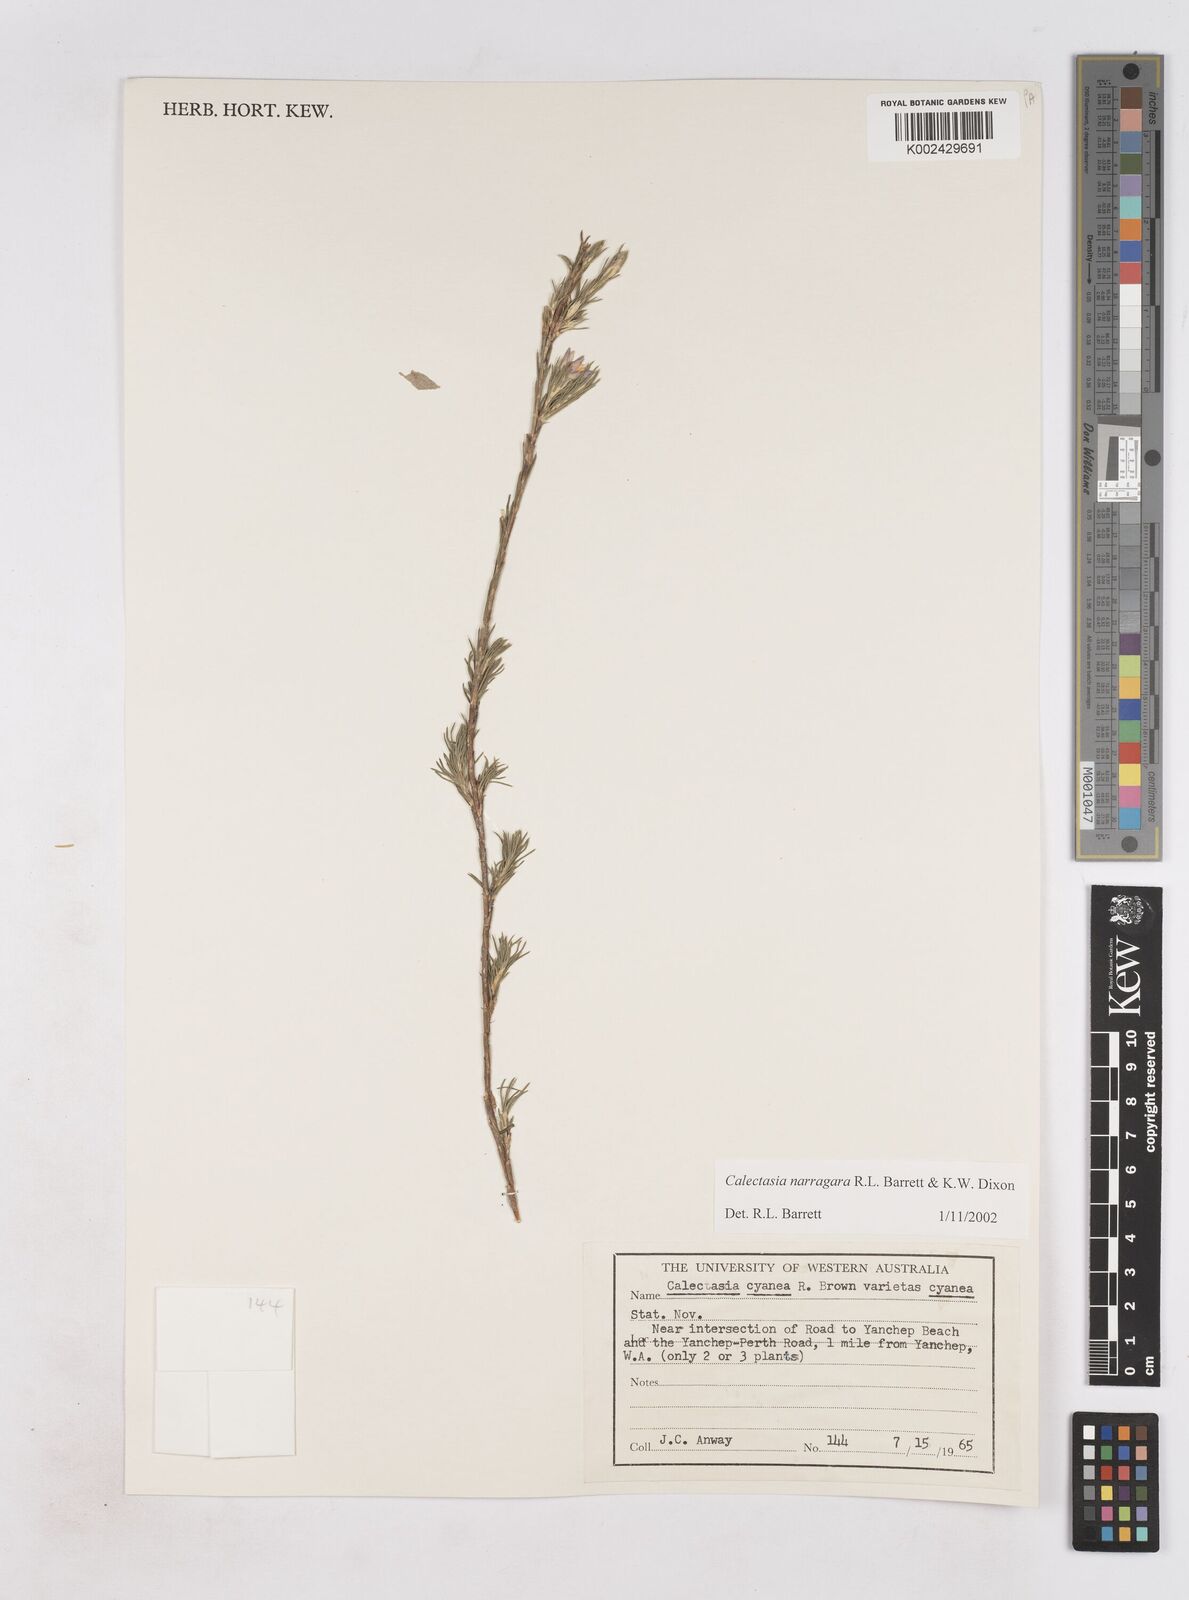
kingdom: Plantae
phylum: Tracheophyta
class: Liliopsida
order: Arecales
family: Dasypogonaceae
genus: Calectasia
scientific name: Calectasia narragara
